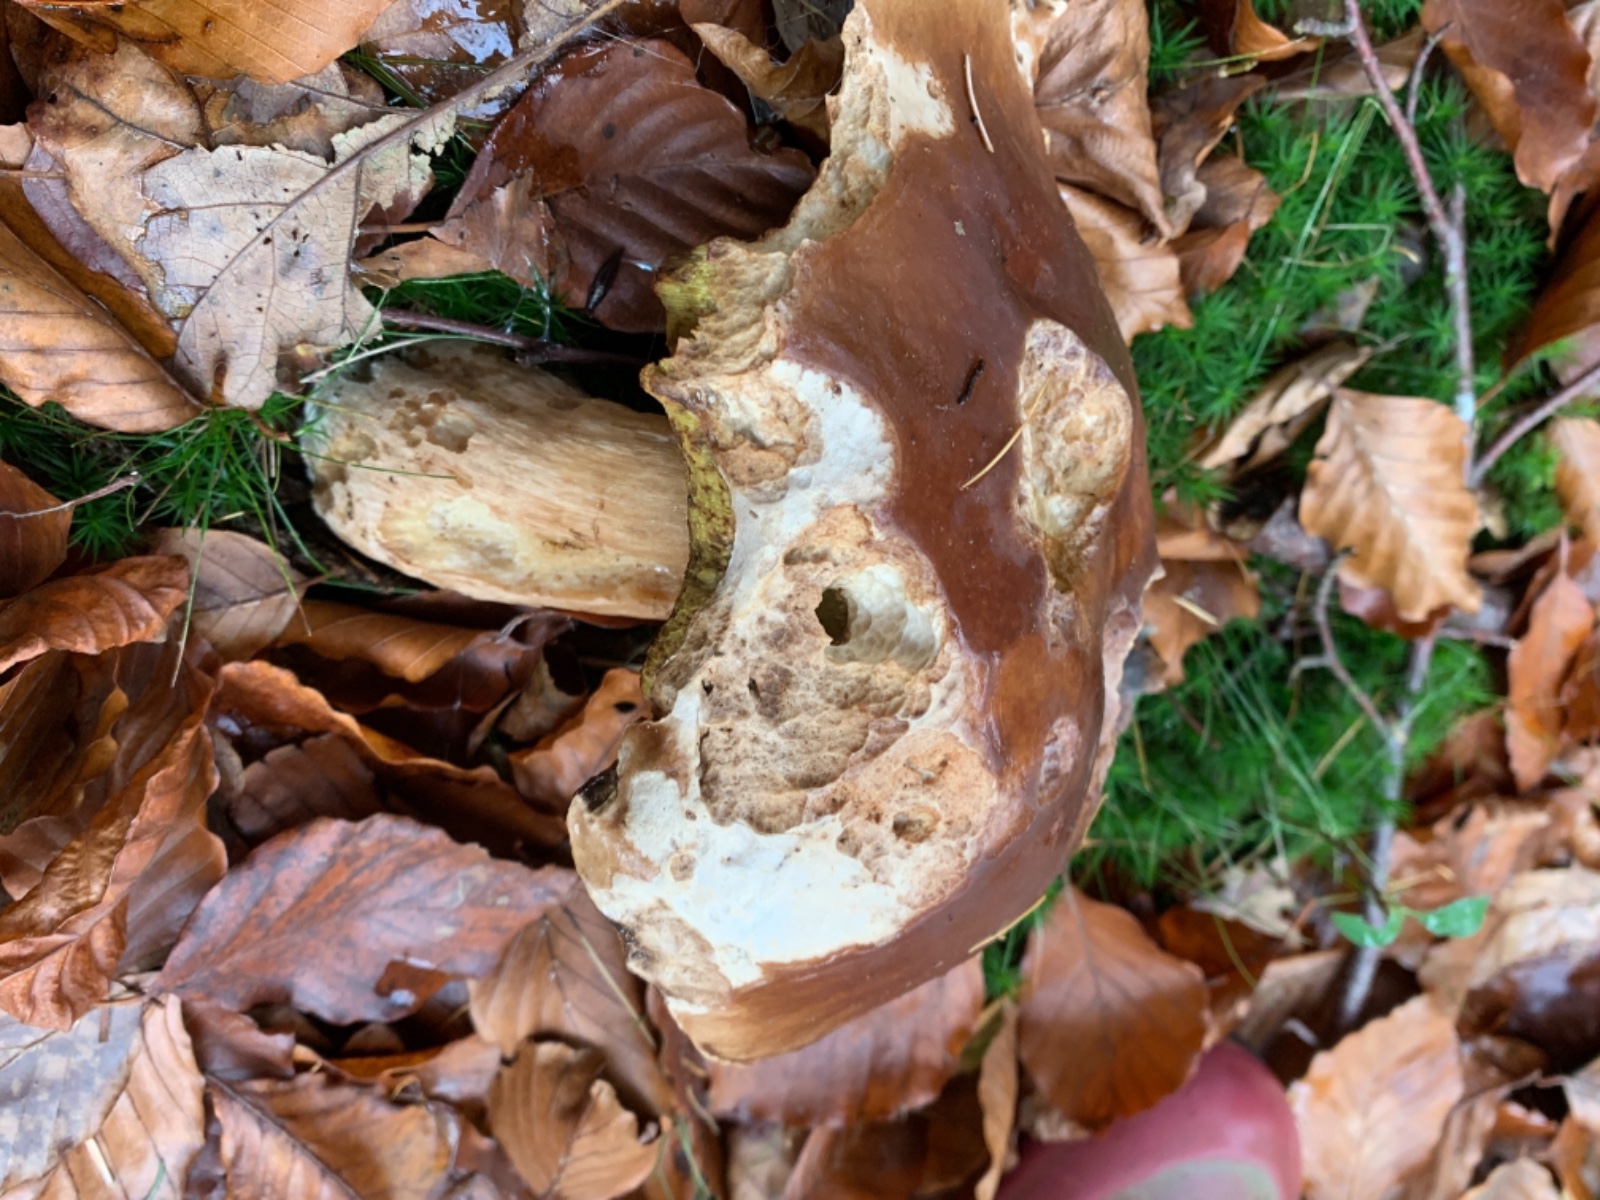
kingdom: Fungi
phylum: Basidiomycota
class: Agaricomycetes
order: Boletales
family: Boletaceae
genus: Boletus
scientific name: Boletus edulis
